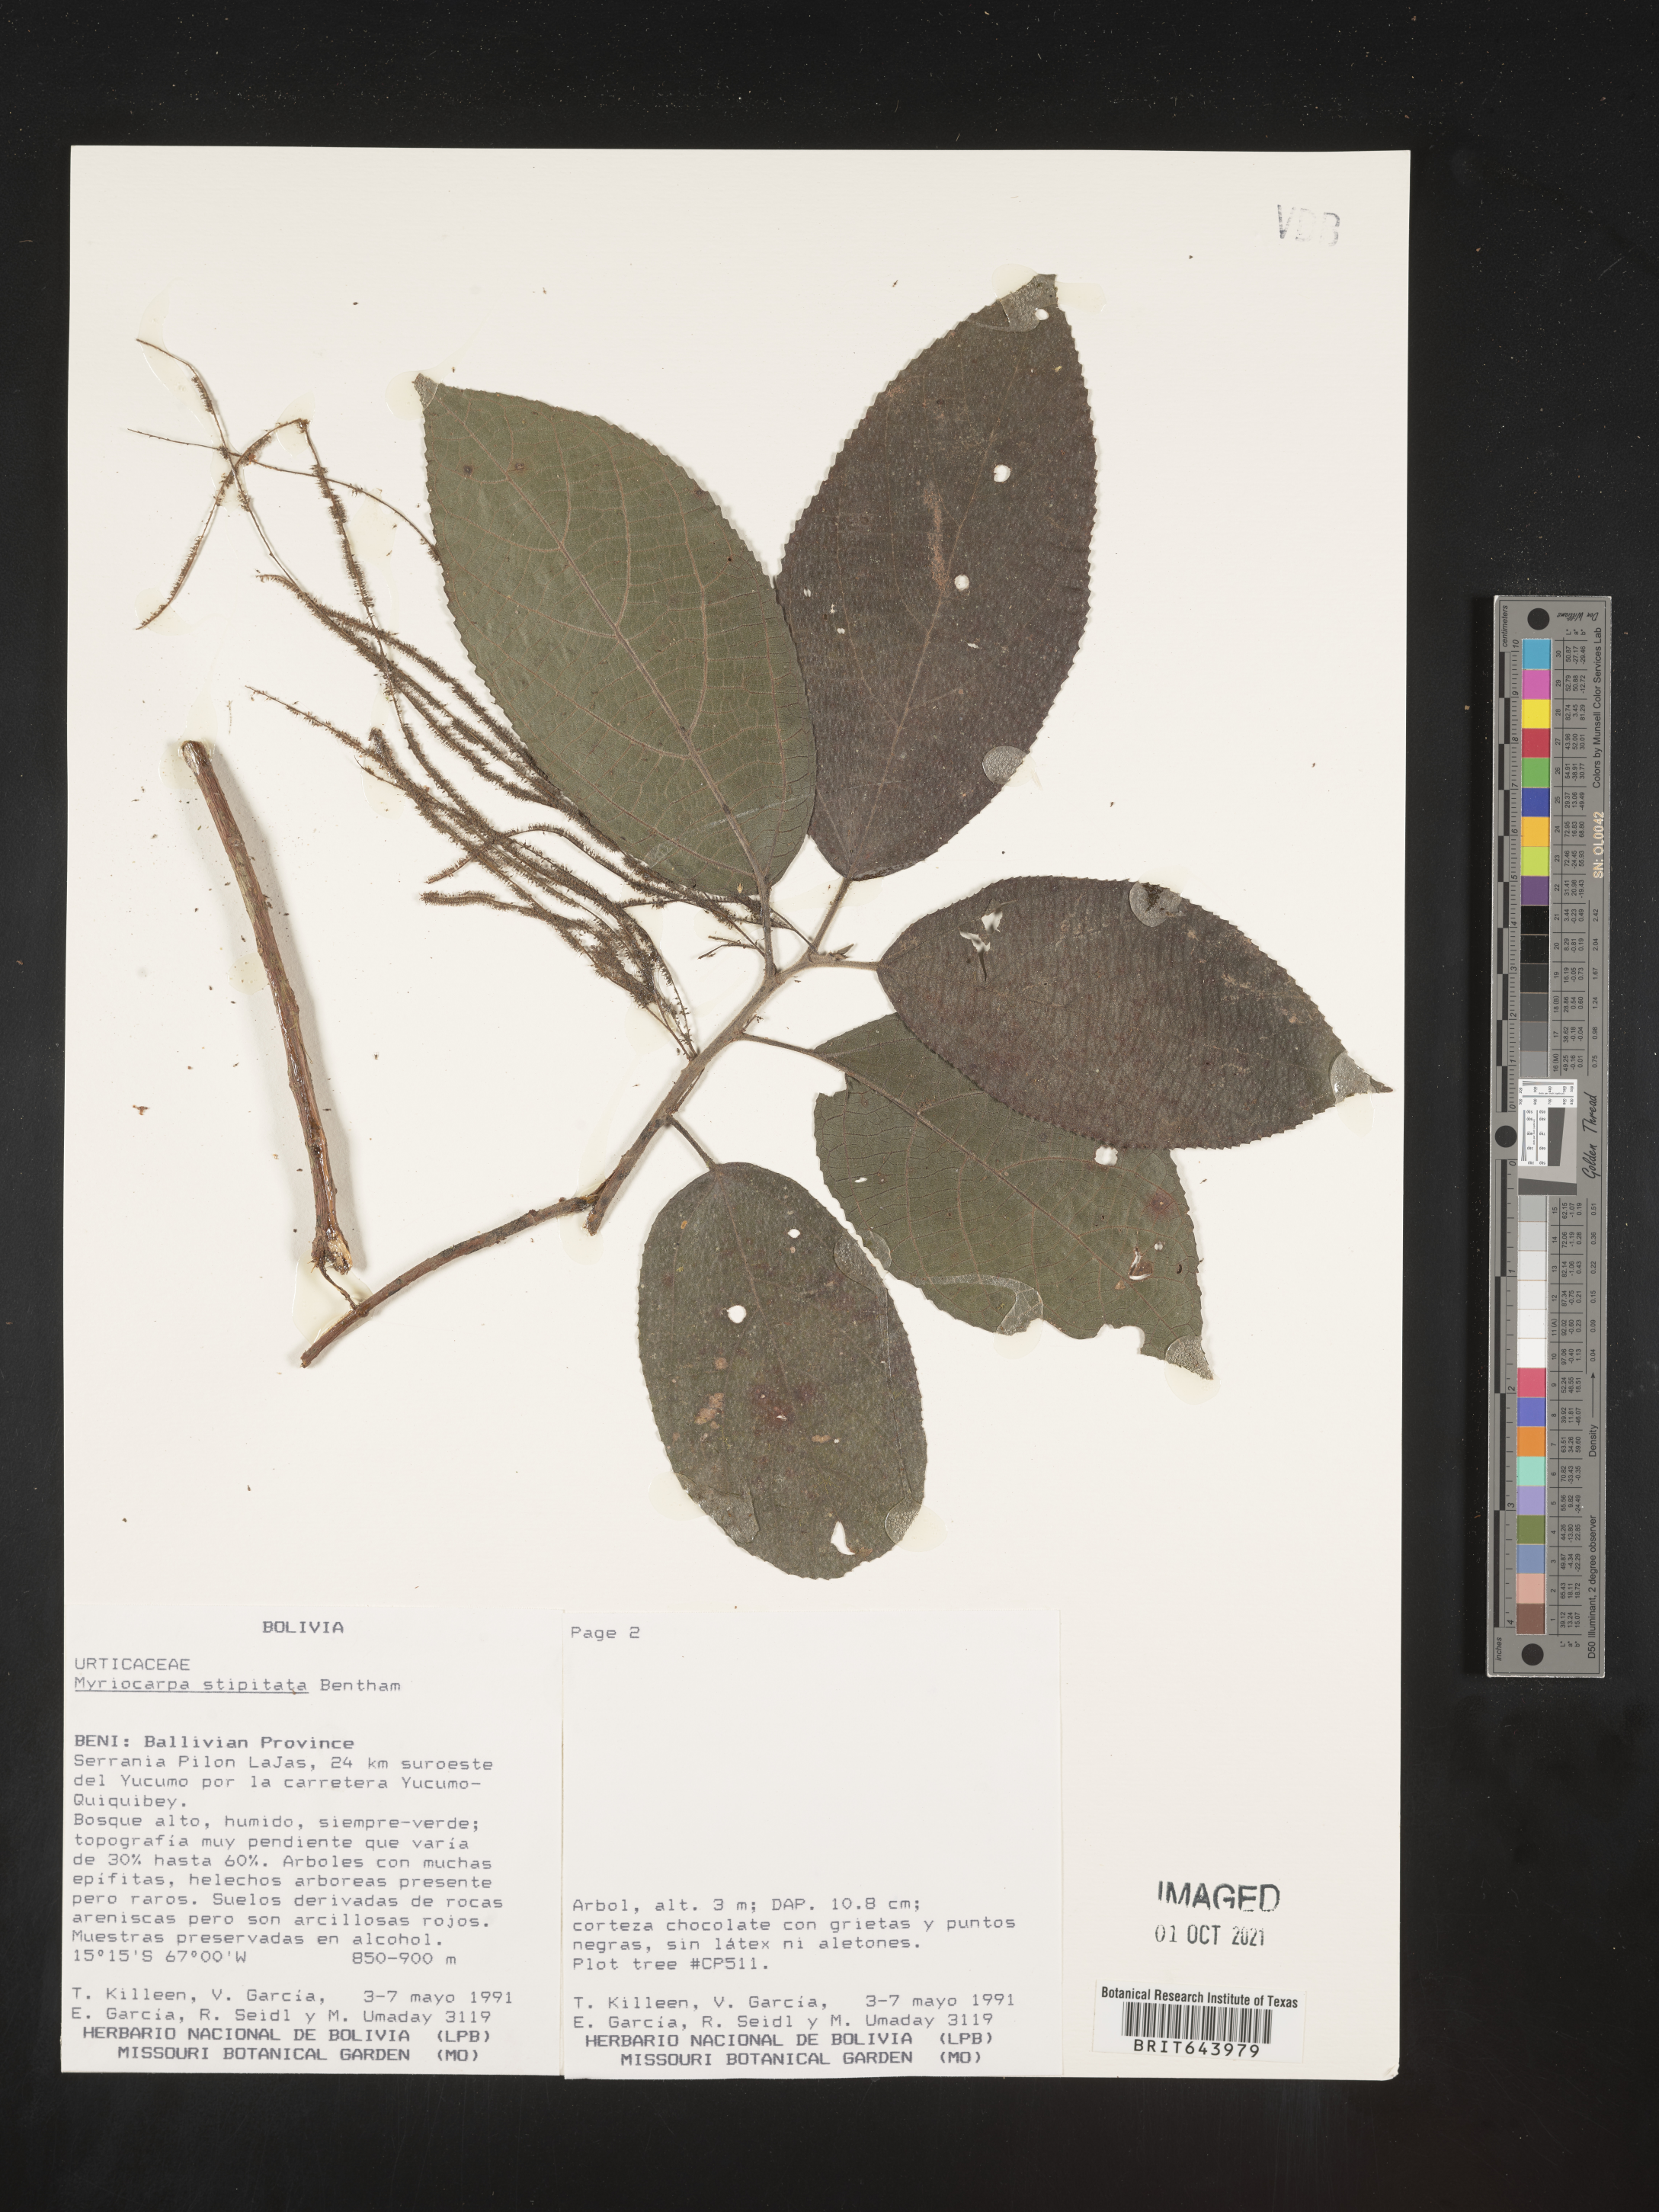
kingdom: Plantae
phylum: Tracheophyta
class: Magnoliopsida
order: Rosales
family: Urticaceae
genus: Myriocarpa
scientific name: Myriocarpa
